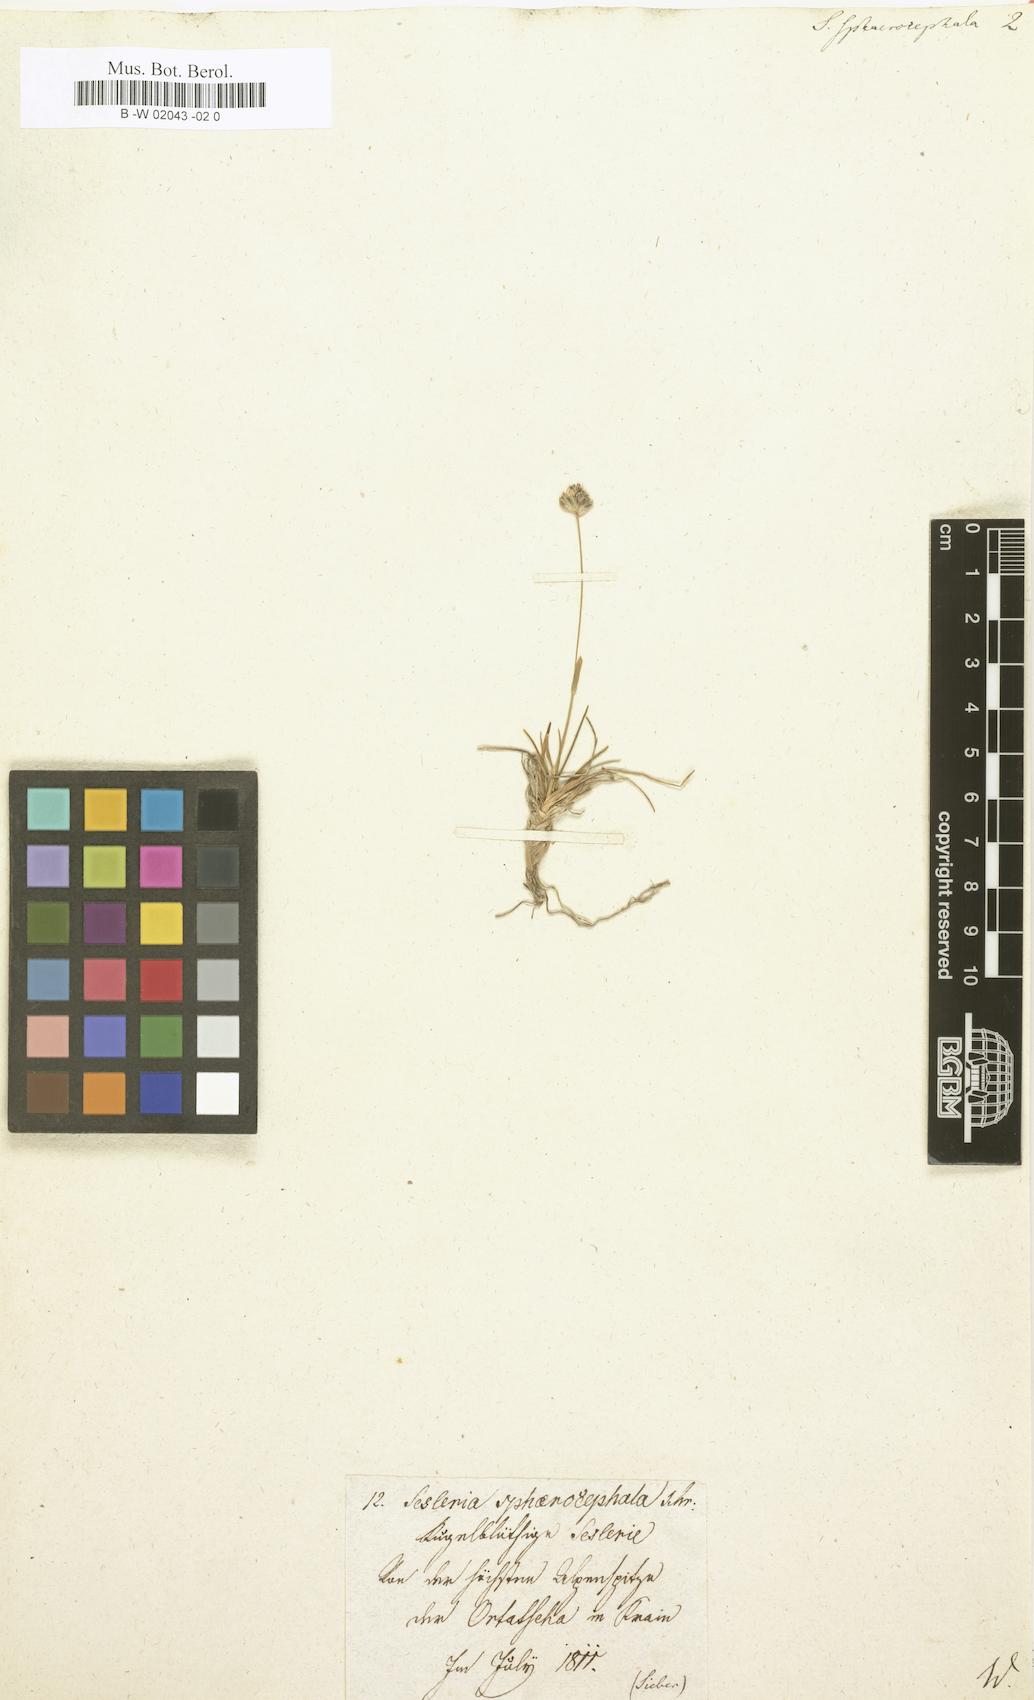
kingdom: Plantae
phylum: Tracheophyta
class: Liliopsida
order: Poales
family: Poaceae
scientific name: Poaceae
